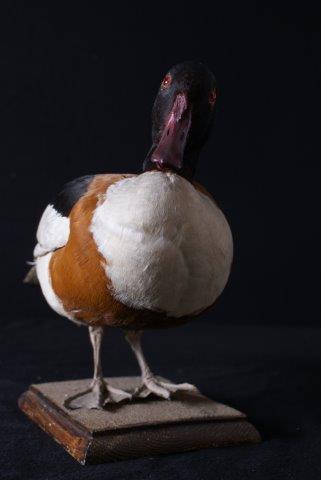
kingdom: Animalia
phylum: Chordata
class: Aves
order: Anseriformes
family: Anatidae
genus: Tadorna
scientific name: Tadorna tadorna
